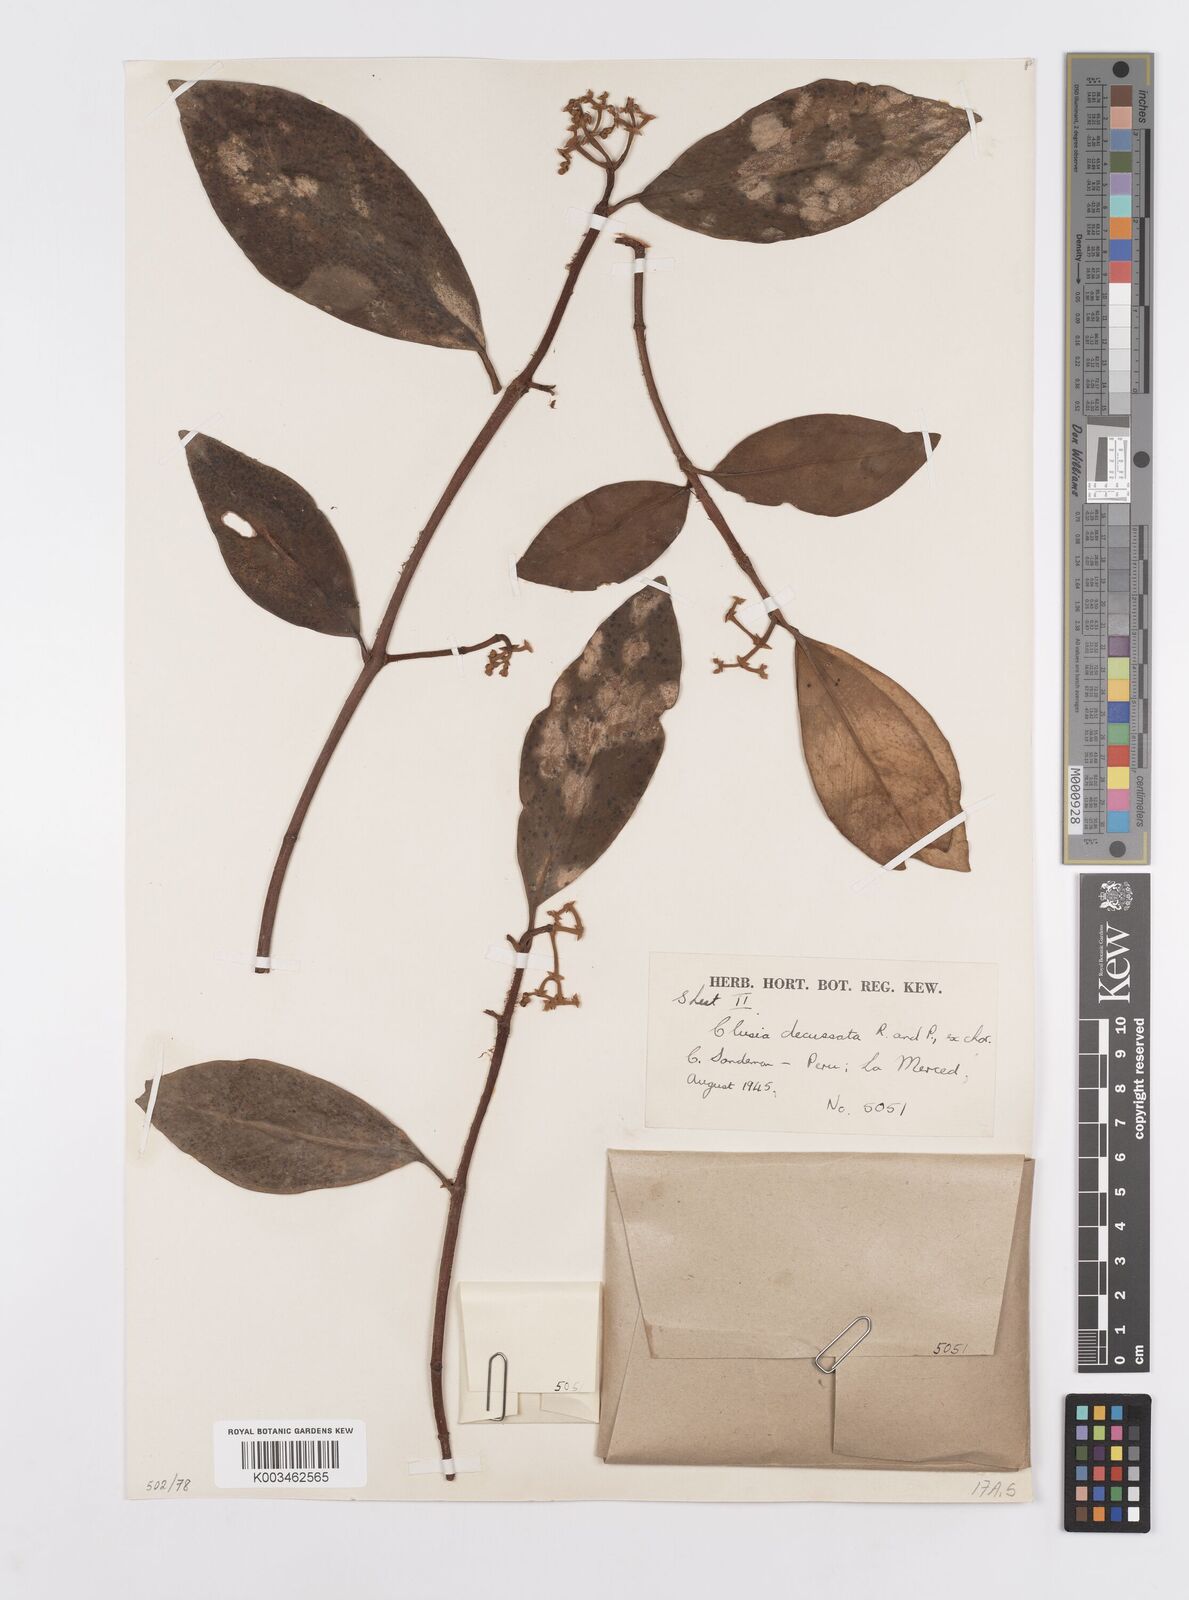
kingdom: Plantae
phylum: Tracheophyta
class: Magnoliopsida
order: Malpighiales
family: Clusiaceae
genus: Clusia
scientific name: Clusia decussata
